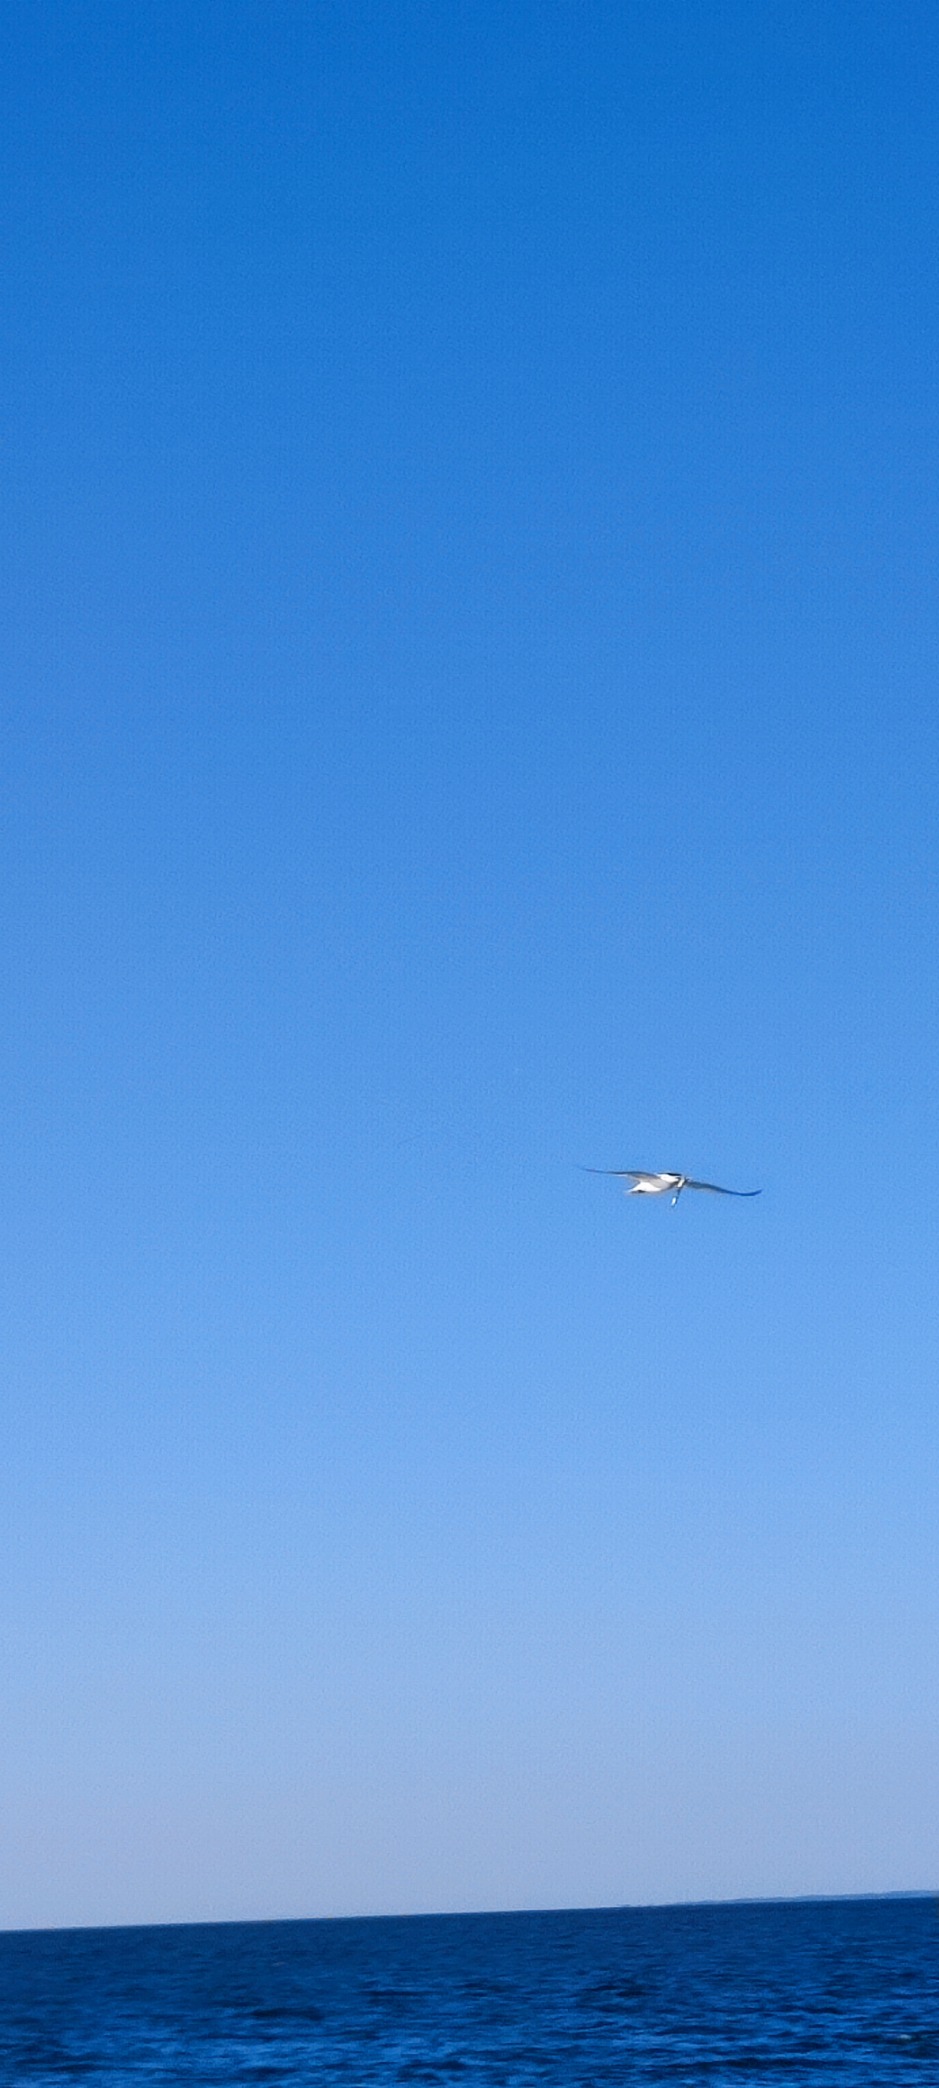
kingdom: Animalia
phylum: Chordata
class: Aves
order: Charadriiformes
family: Laridae
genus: Thalasseus
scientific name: Thalasseus sandvicensis
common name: Splitterne
